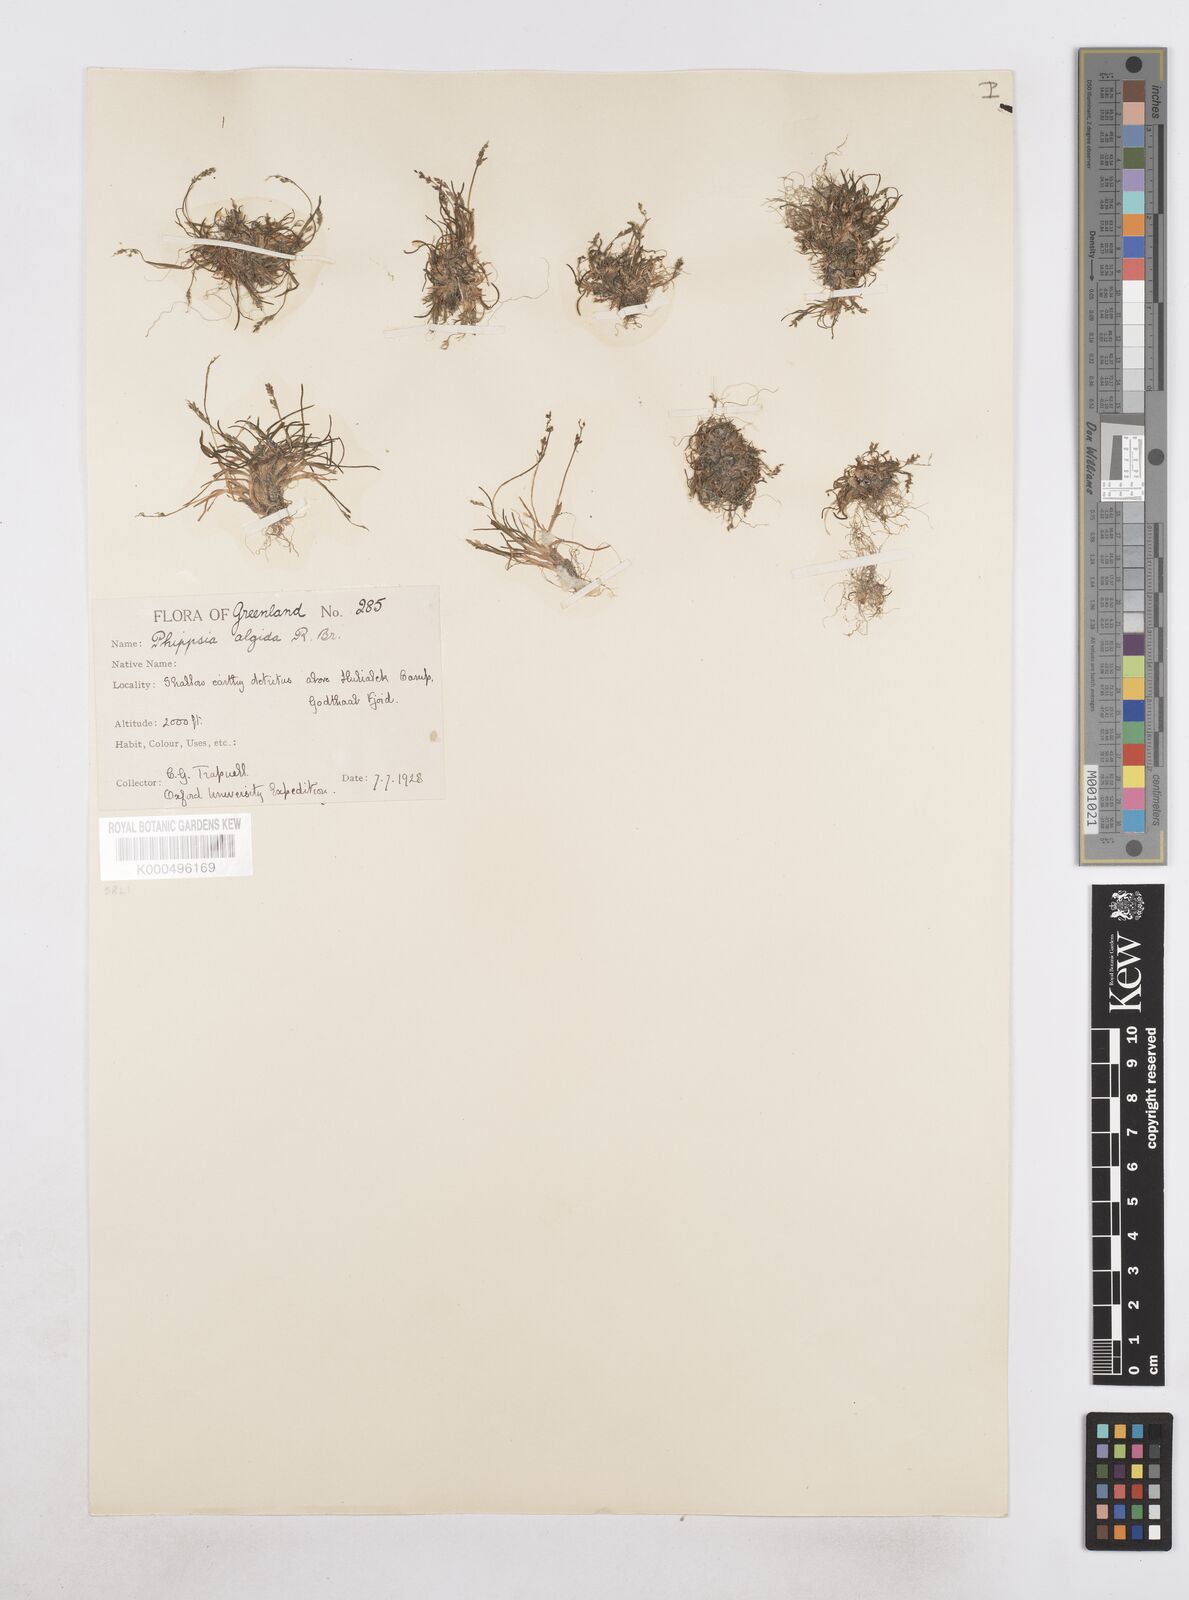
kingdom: Plantae
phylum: Tracheophyta
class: Liliopsida
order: Poales
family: Poaceae
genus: Phippsia
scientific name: Phippsia algida
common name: Ice grass
